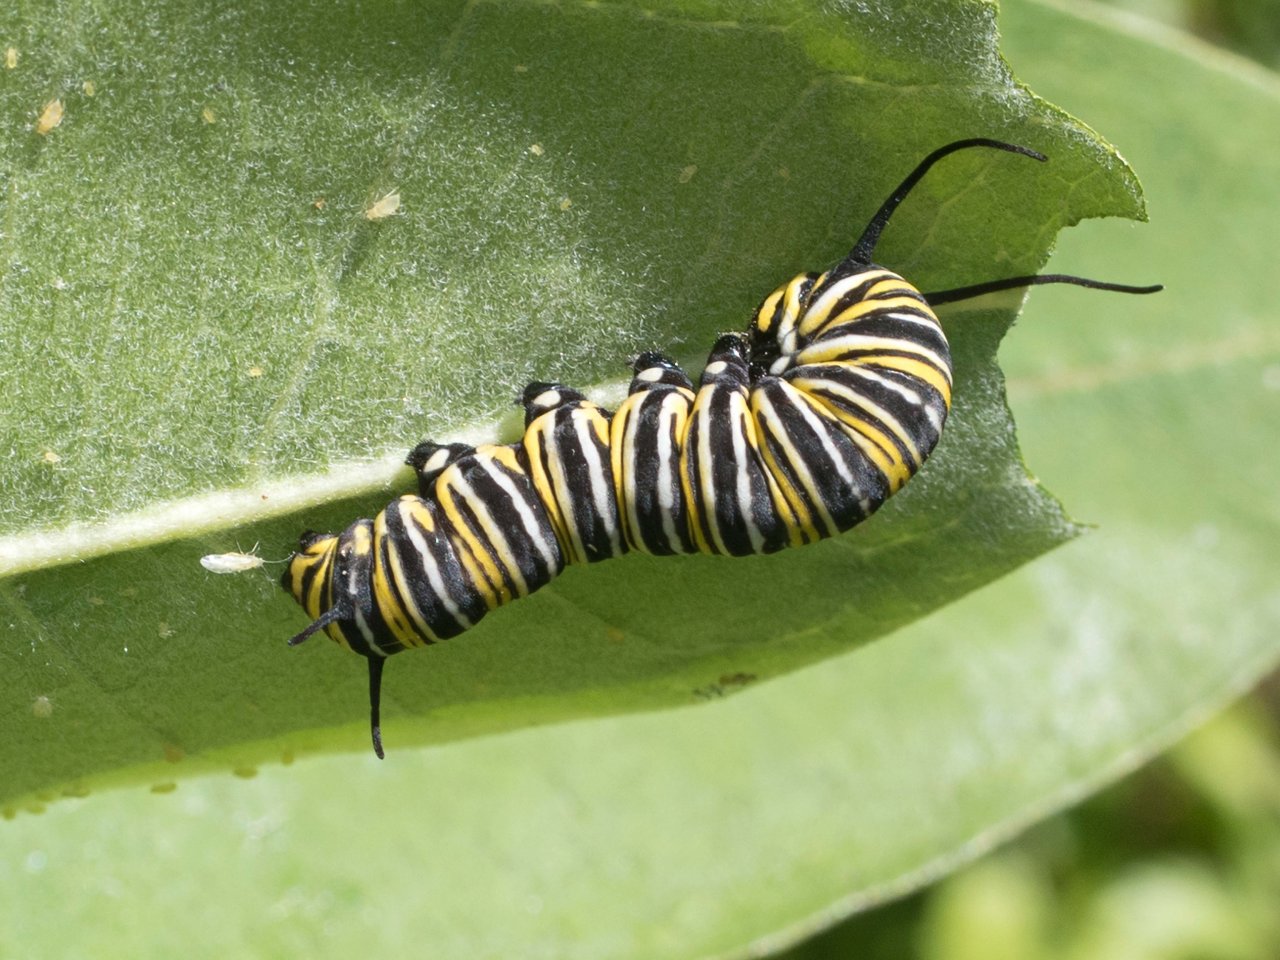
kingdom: Animalia
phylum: Arthropoda
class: Insecta
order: Lepidoptera
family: Nymphalidae
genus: Danaus
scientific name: Danaus plexippus
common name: Monarch
